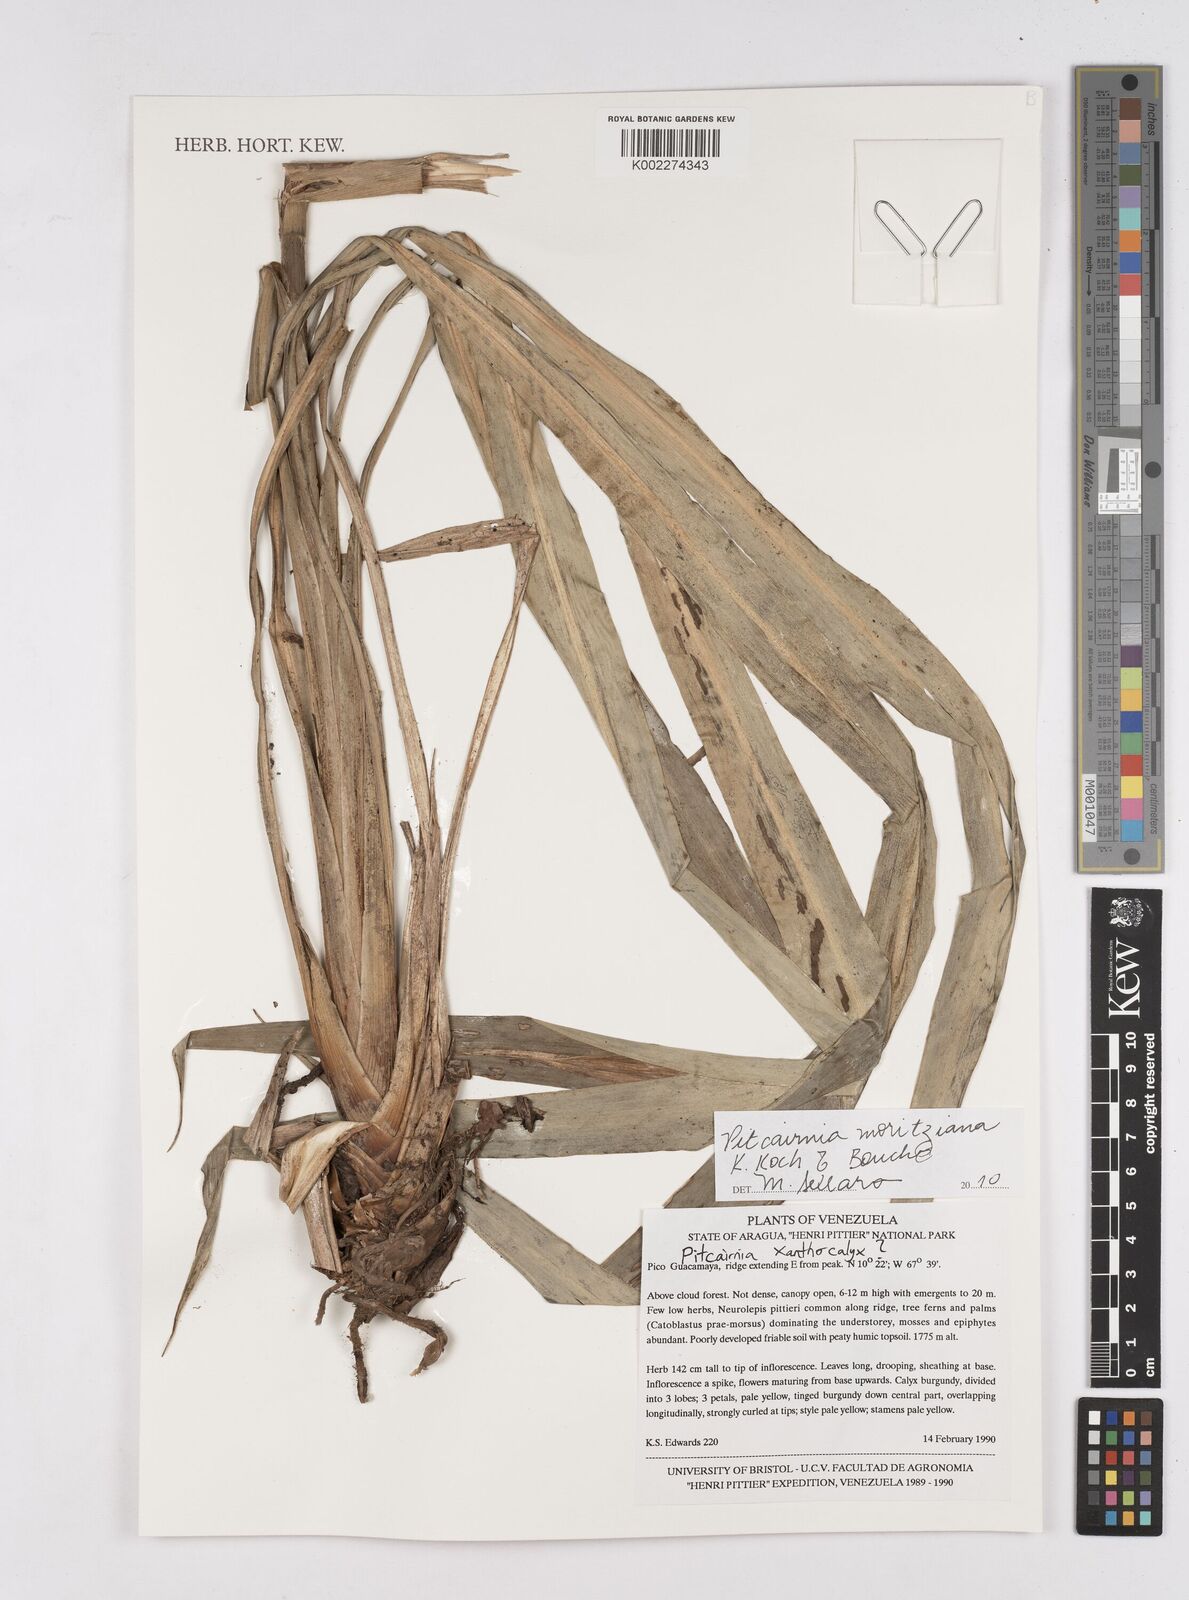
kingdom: Plantae
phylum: Tracheophyta
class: Liliopsida
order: Poales
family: Bromeliaceae
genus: Pitcairnia
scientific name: Pitcairnia moritziana
